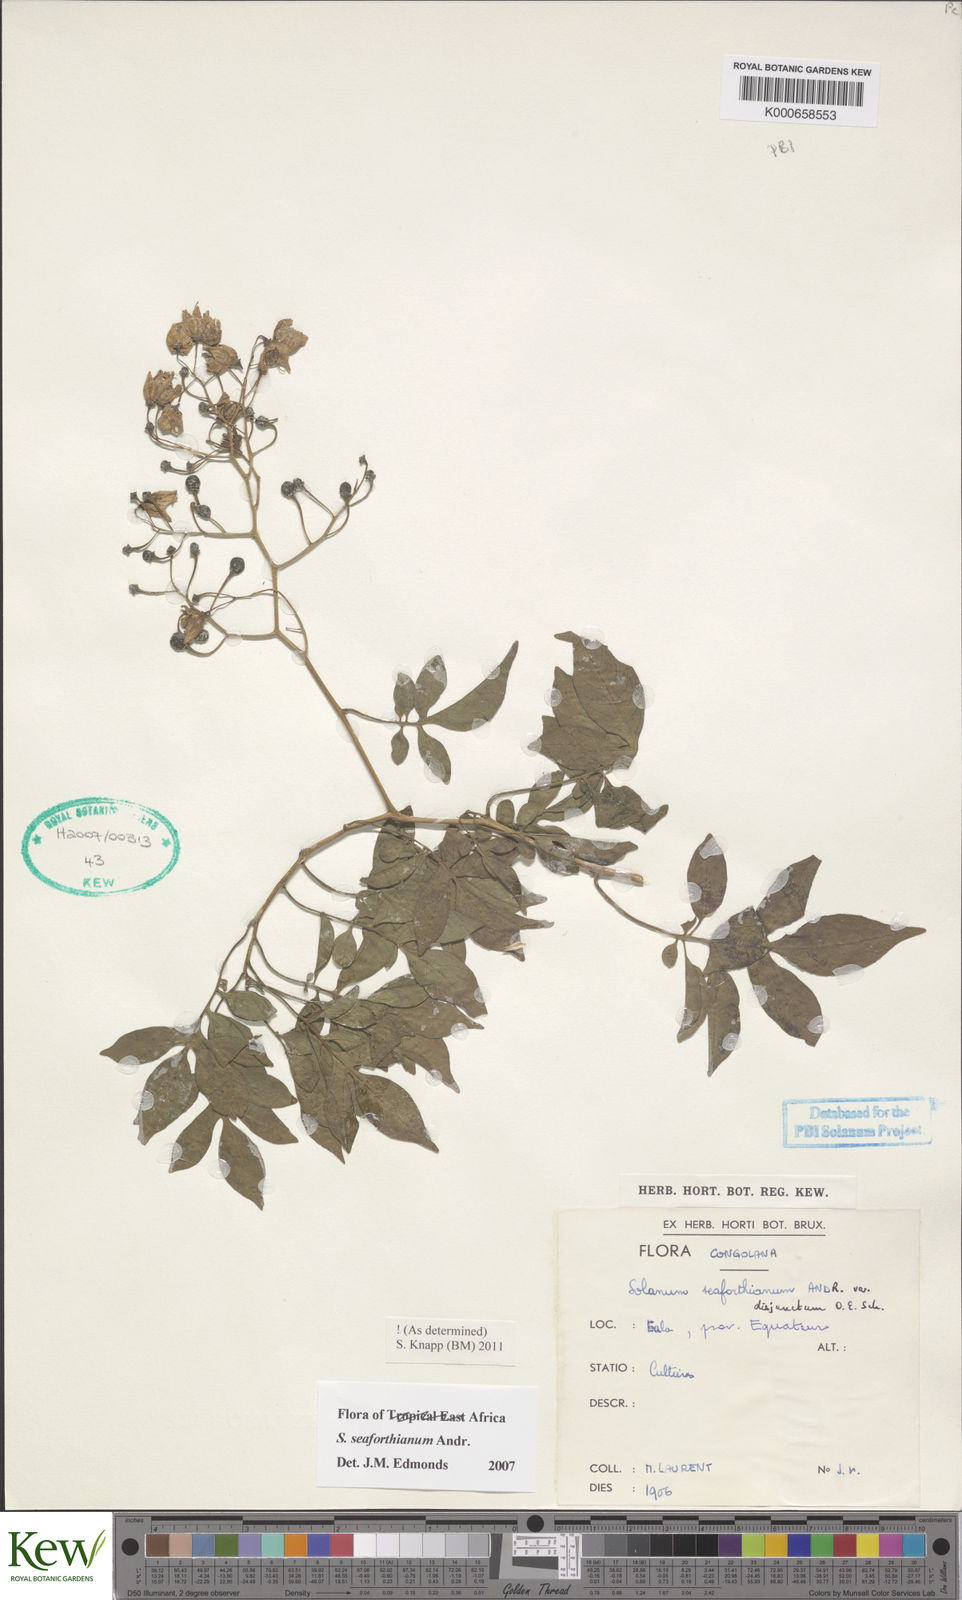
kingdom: Plantae
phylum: Tracheophyta
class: Magnoliopsida
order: Solanales
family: Solanaceae
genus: Solanum
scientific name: Solanum seaforthianum
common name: Brazilian nightshade
